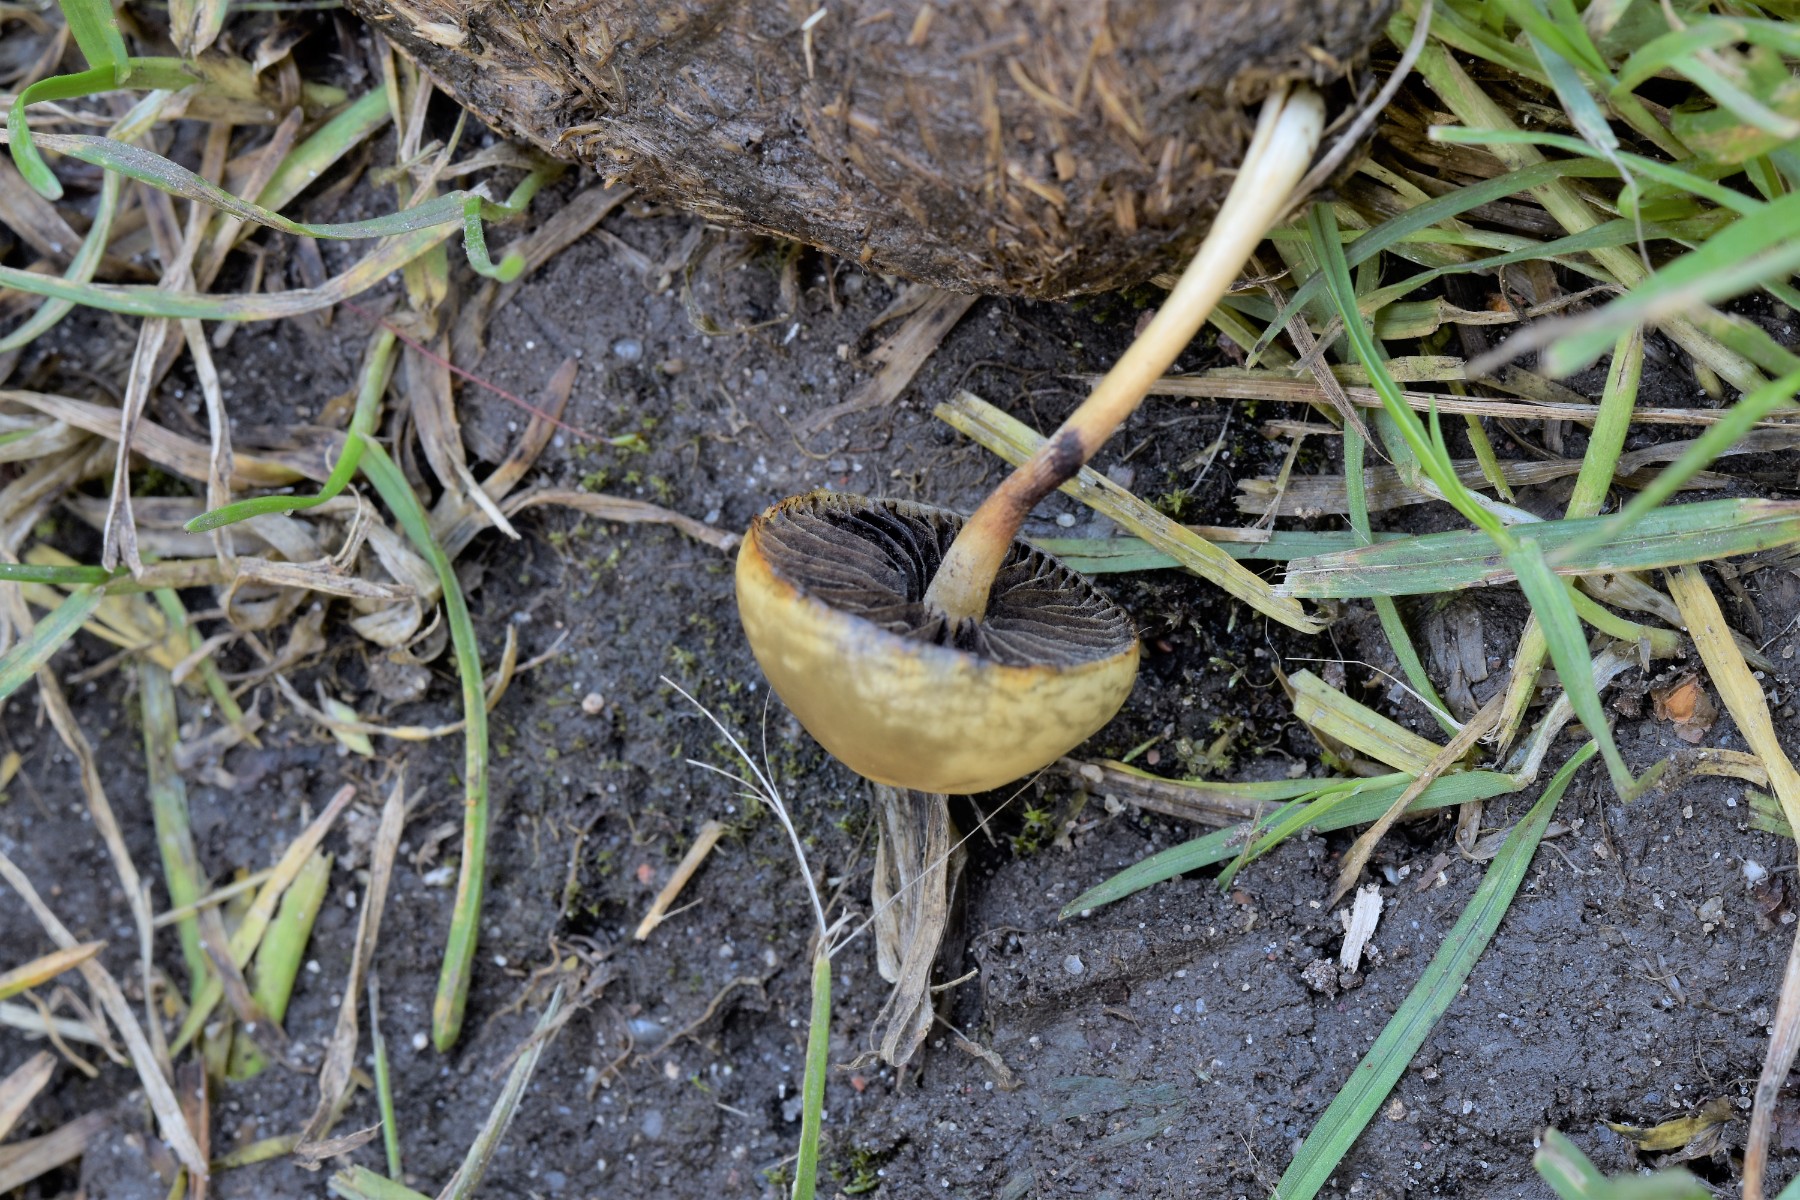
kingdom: Fungi
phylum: Basidiomycota
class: Agaricomycetes
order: Agaricales
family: Strophariaceae
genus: Protostropharia
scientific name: Protostropharia semiglobata
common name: halvkugleformet bredblad
